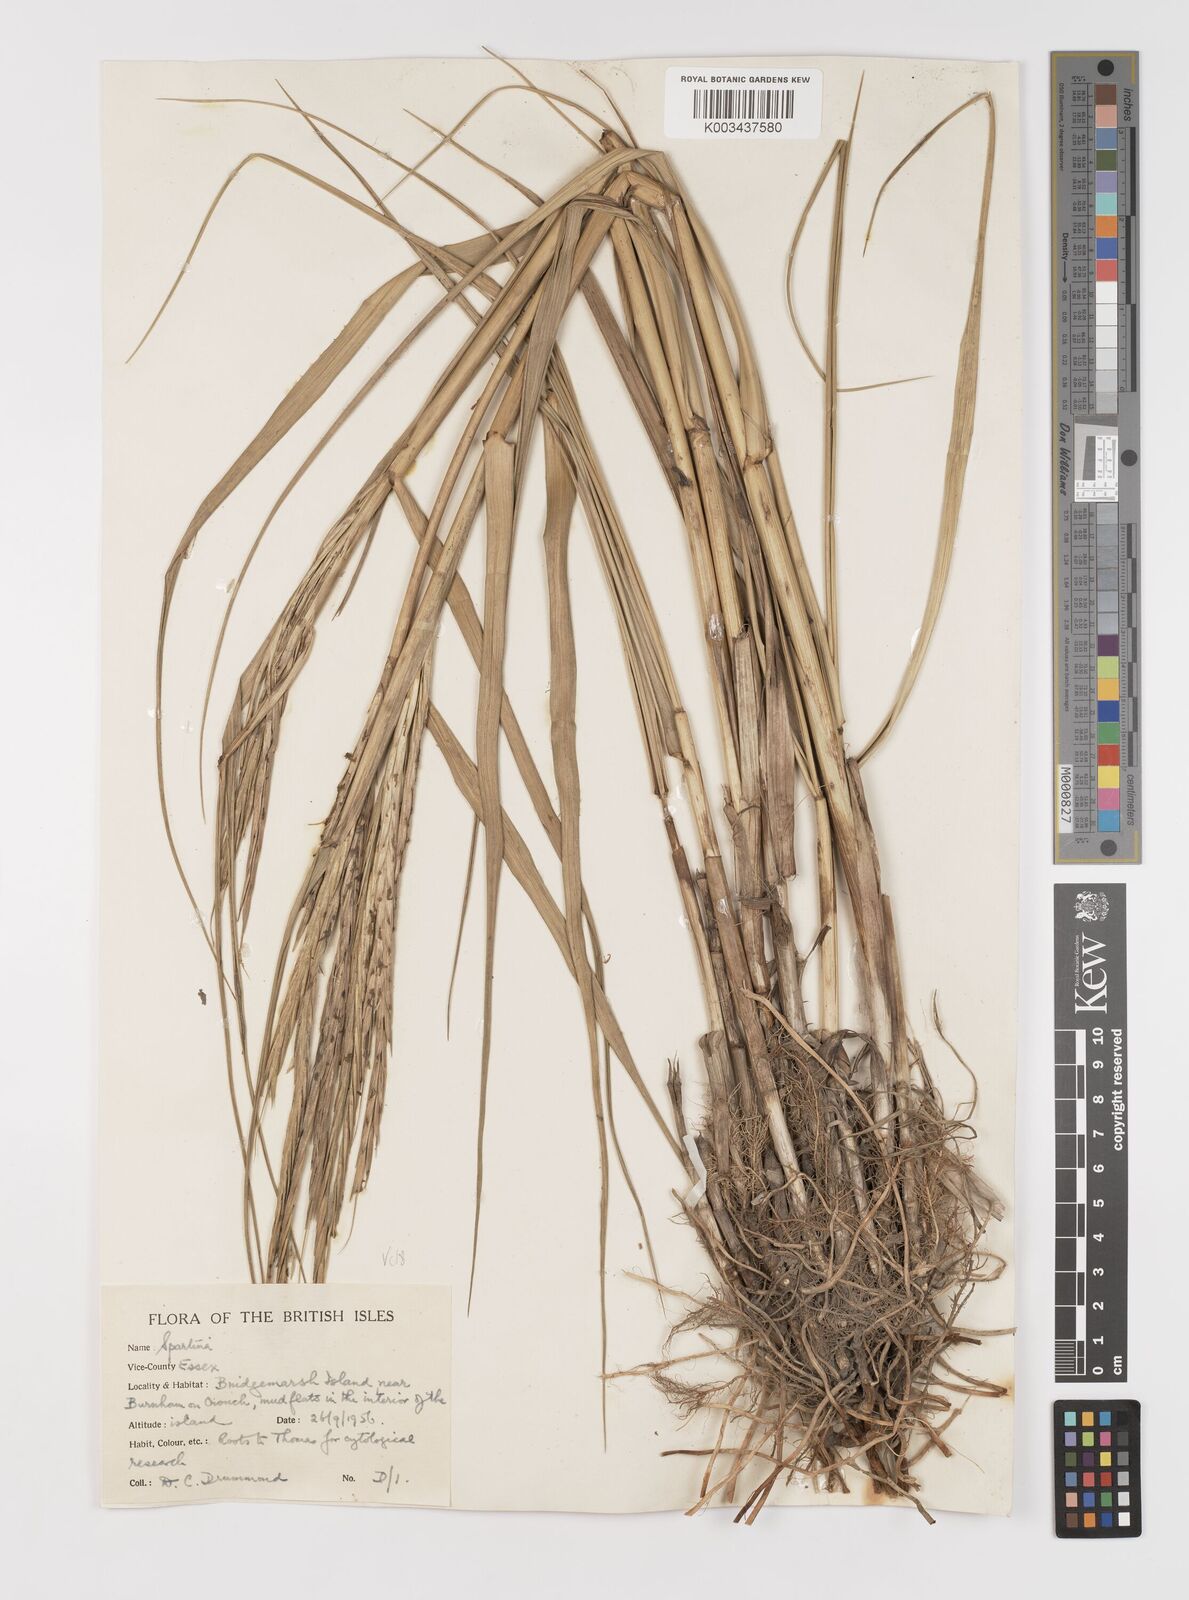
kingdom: Plantae
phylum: Tracheophyta
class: Liliopsida
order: Poales
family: Poaceae
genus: Sporobolus
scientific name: Sporobolus anglicus
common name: English cordgrass
